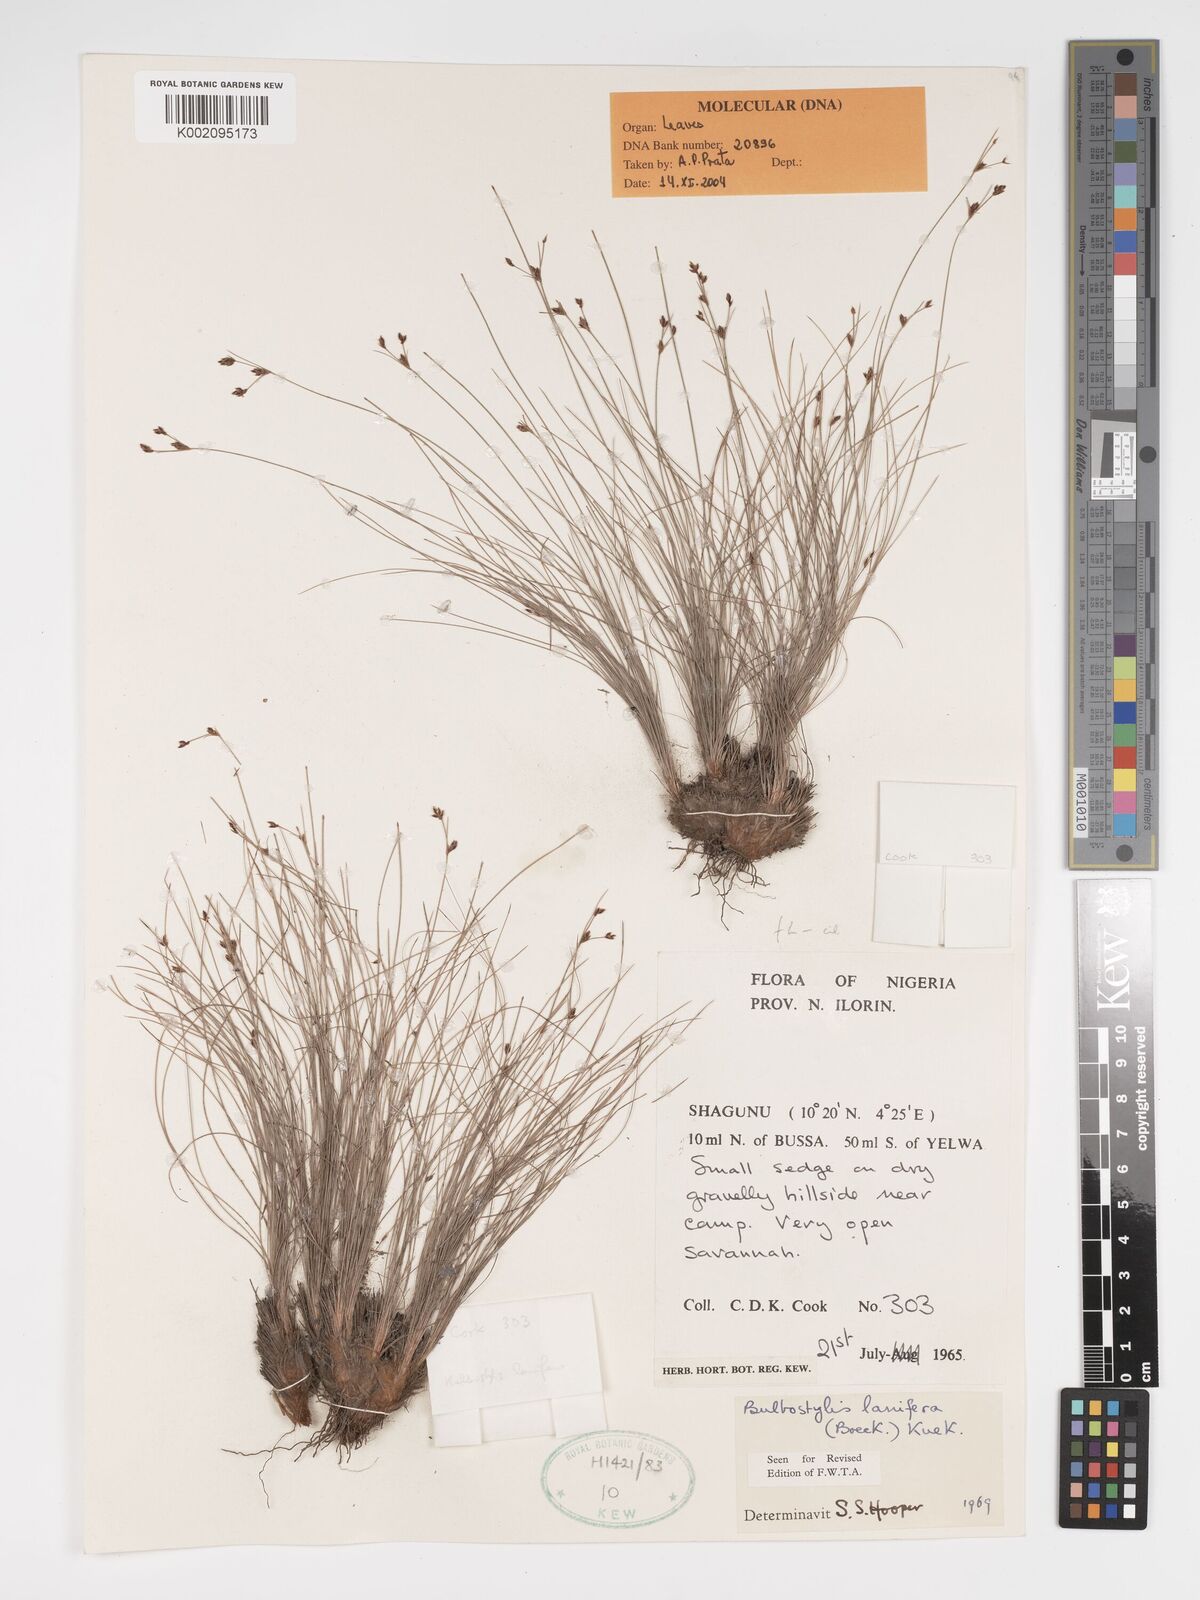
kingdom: Plantae
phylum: Tracheophyta
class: Liliopsida
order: Poales
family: Cyperaceae
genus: Bulbostylis
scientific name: Bulbostylis lanifera
